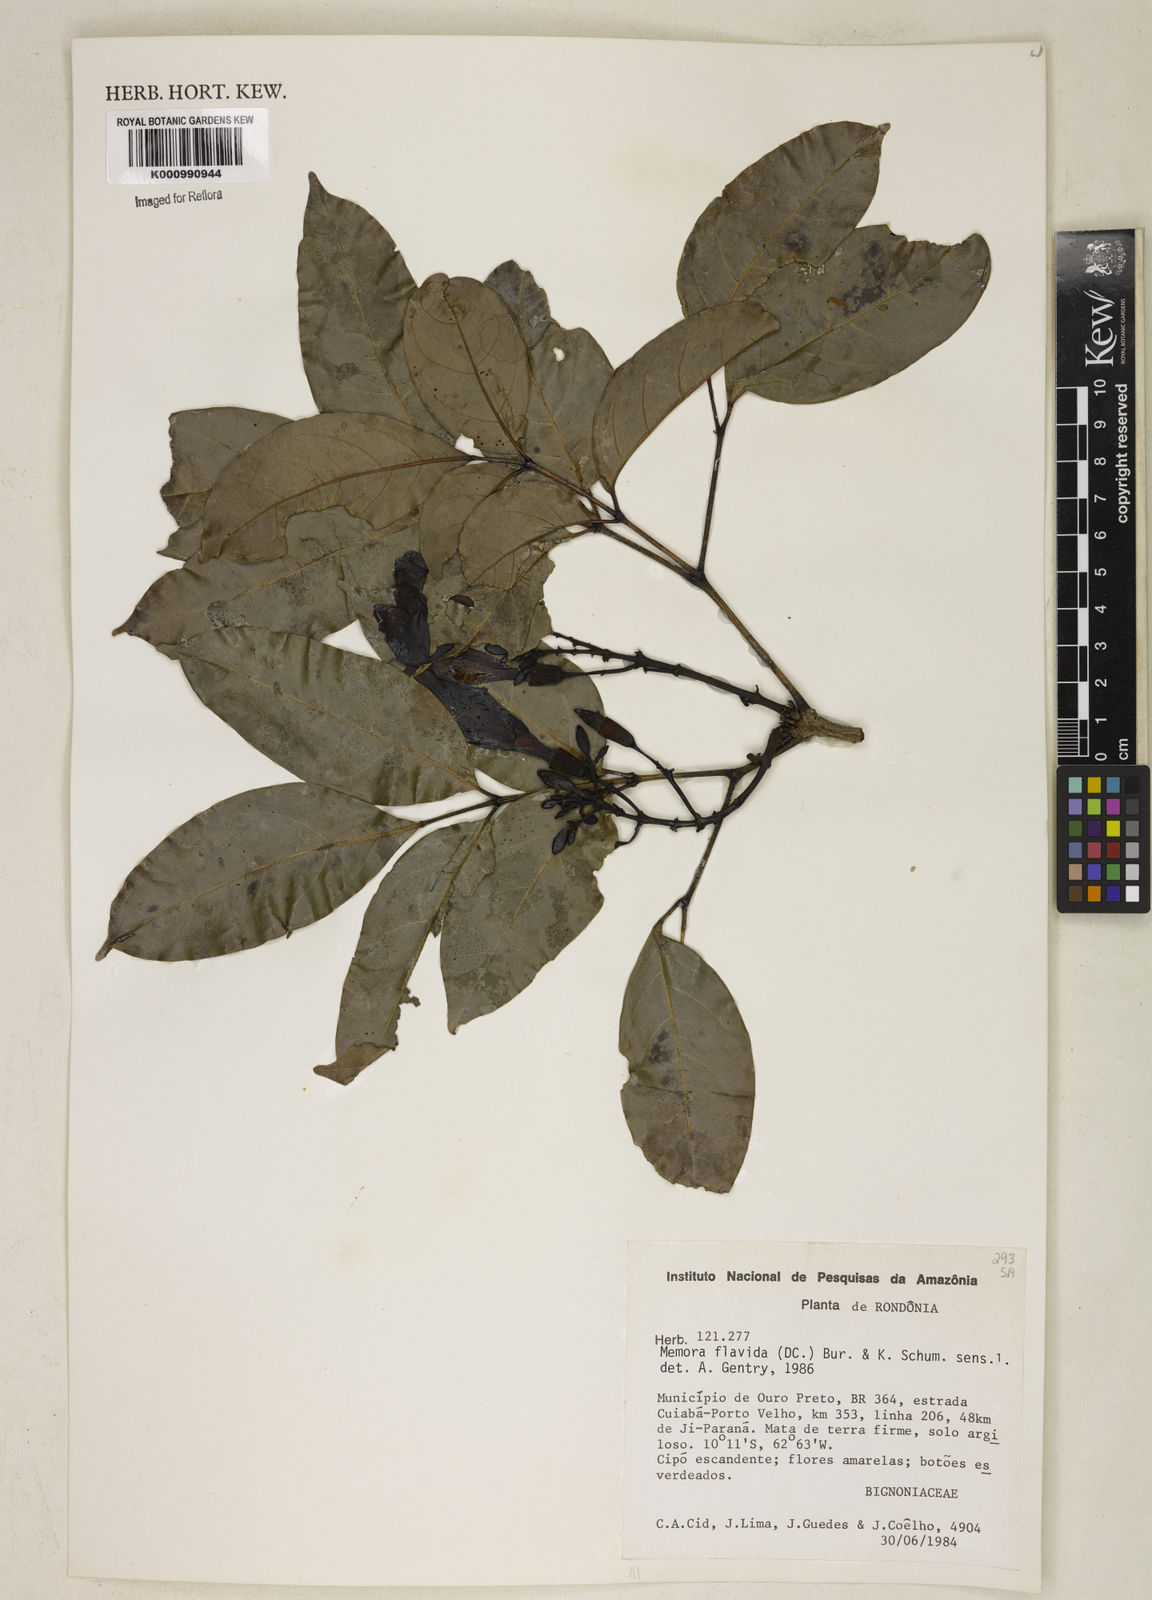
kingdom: Plantae
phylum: Tracheophyta
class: Magnoliopsida
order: Lamiales
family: Bignoniaceae
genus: Adenocalymma
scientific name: Adenocalymma neoflavidum
